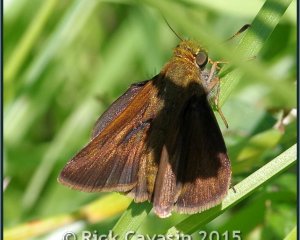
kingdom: Animalia
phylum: Arthropoda
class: Insecta
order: Lepidoptera
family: Hesperiidae
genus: Euphyes
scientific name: Euphyes vestris
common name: Dun Skipper
